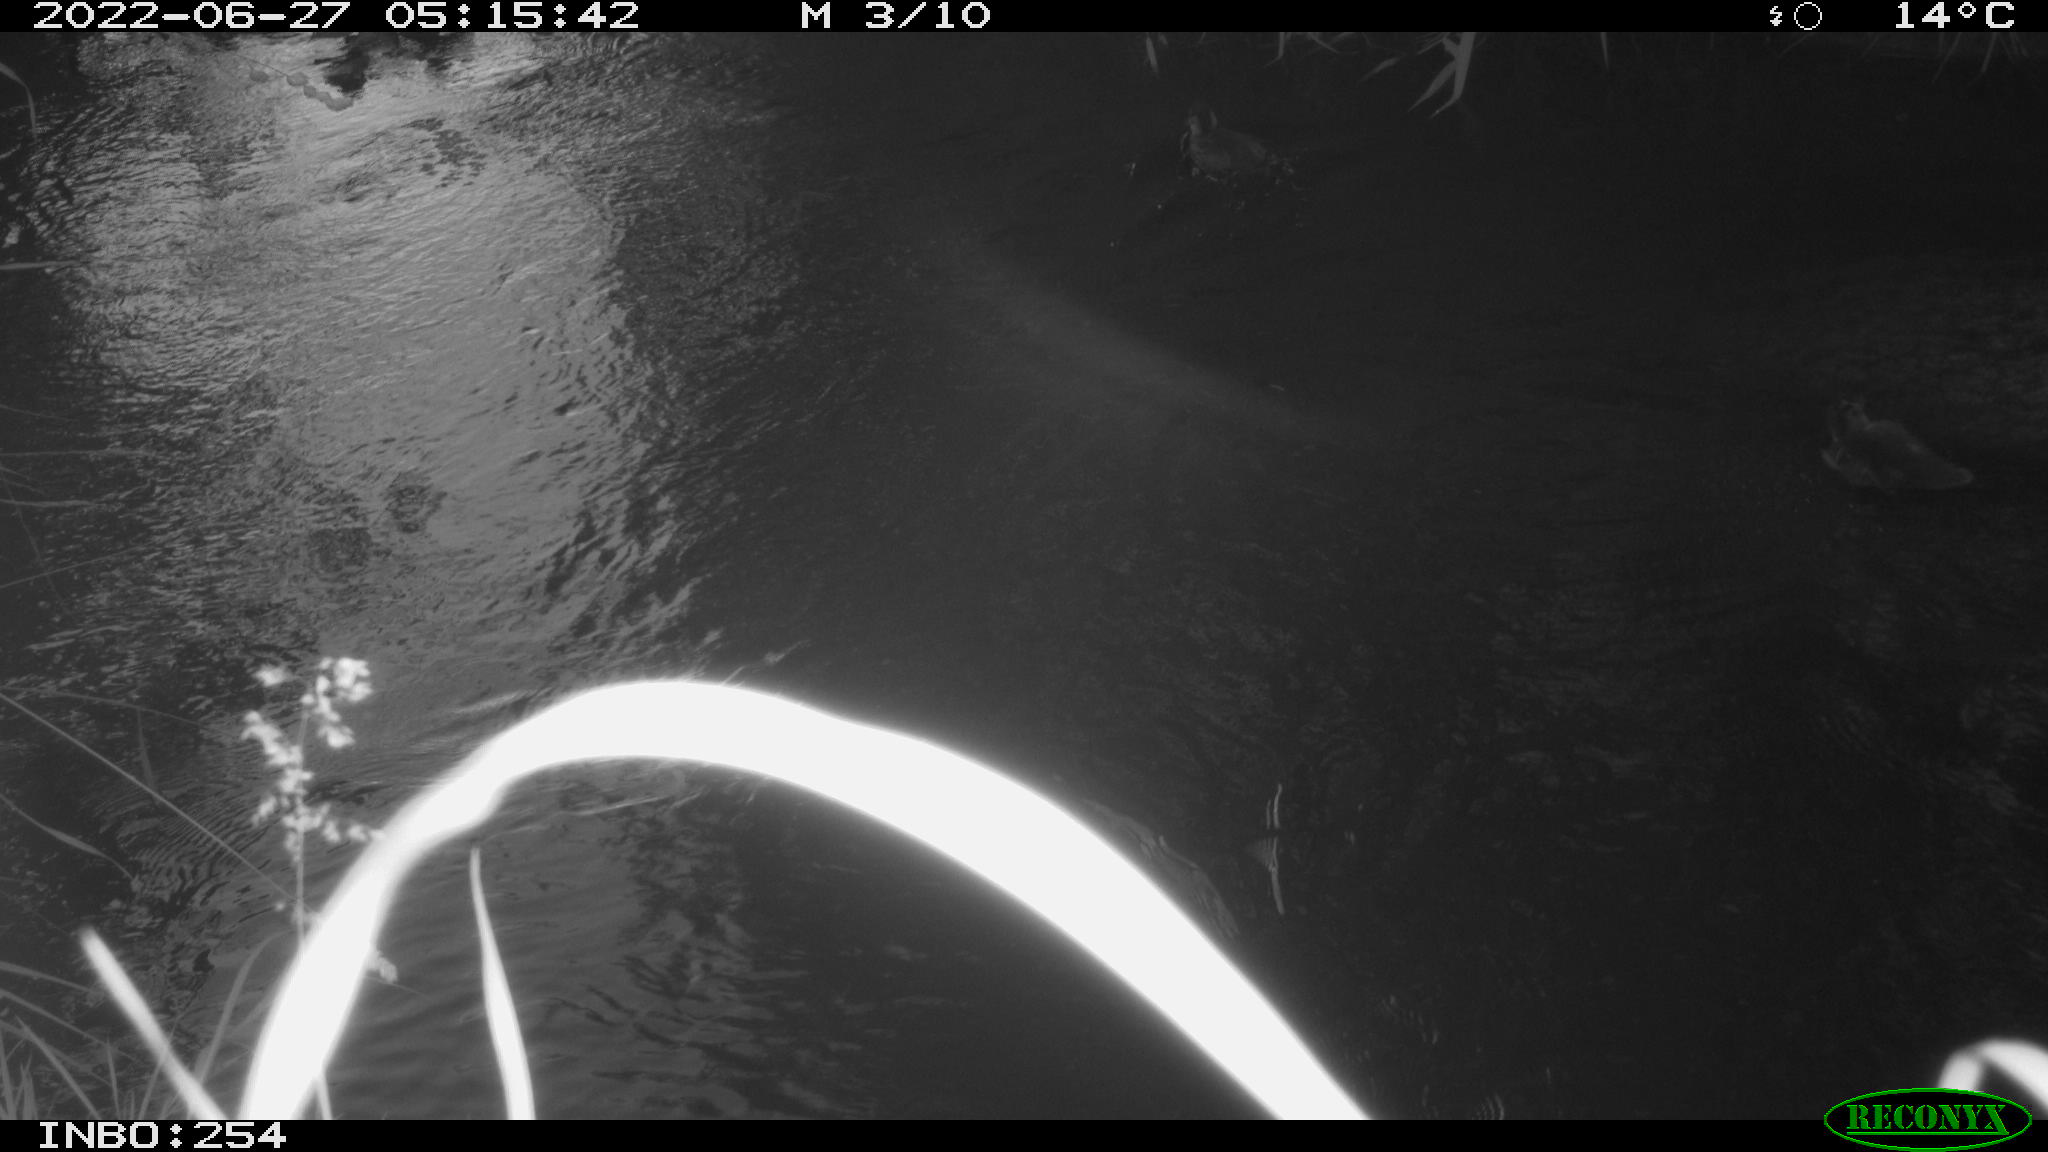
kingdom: Animalia
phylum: Chordata
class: Aves
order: Anseriformes
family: Anatidae
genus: Anas
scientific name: Anas platyrhynchos
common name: Mallard
